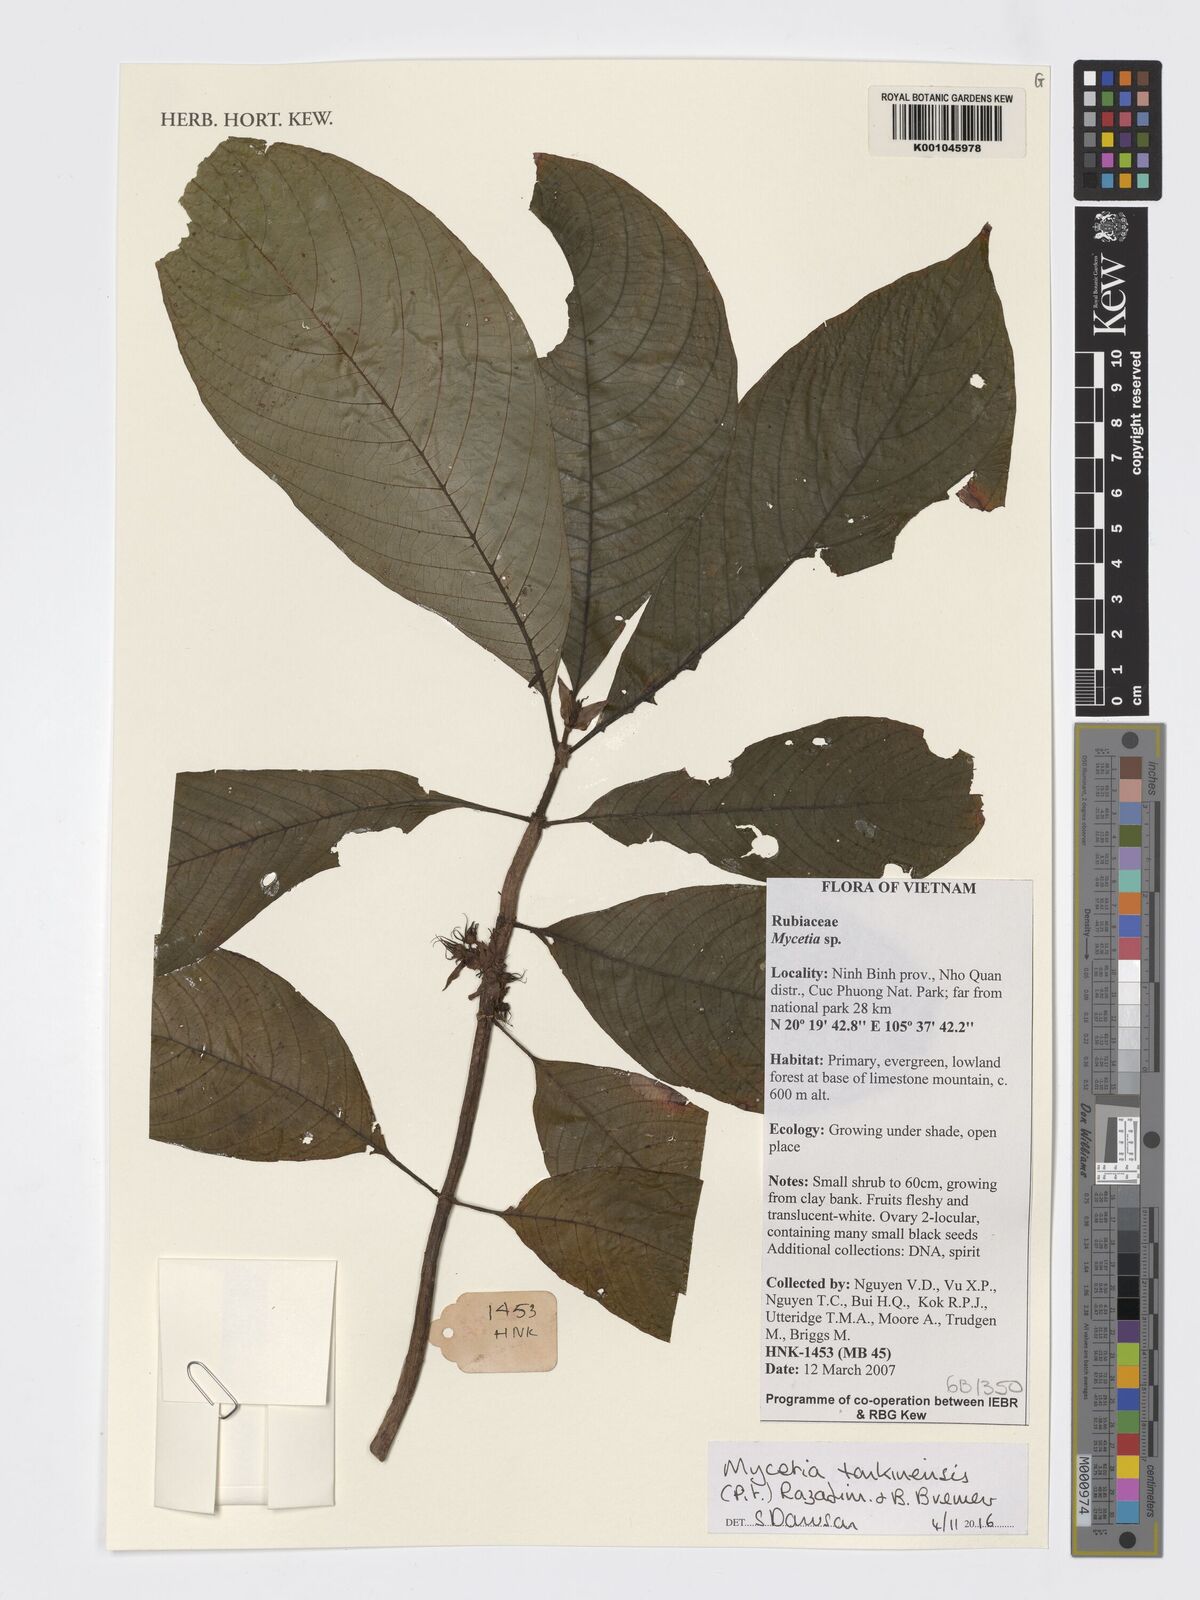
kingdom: Plantae
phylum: Tracheophyta
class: Magnoliopsida
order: Gentianales
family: Rubiaceae
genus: Mycetia
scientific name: Mycetia tonkinensis
